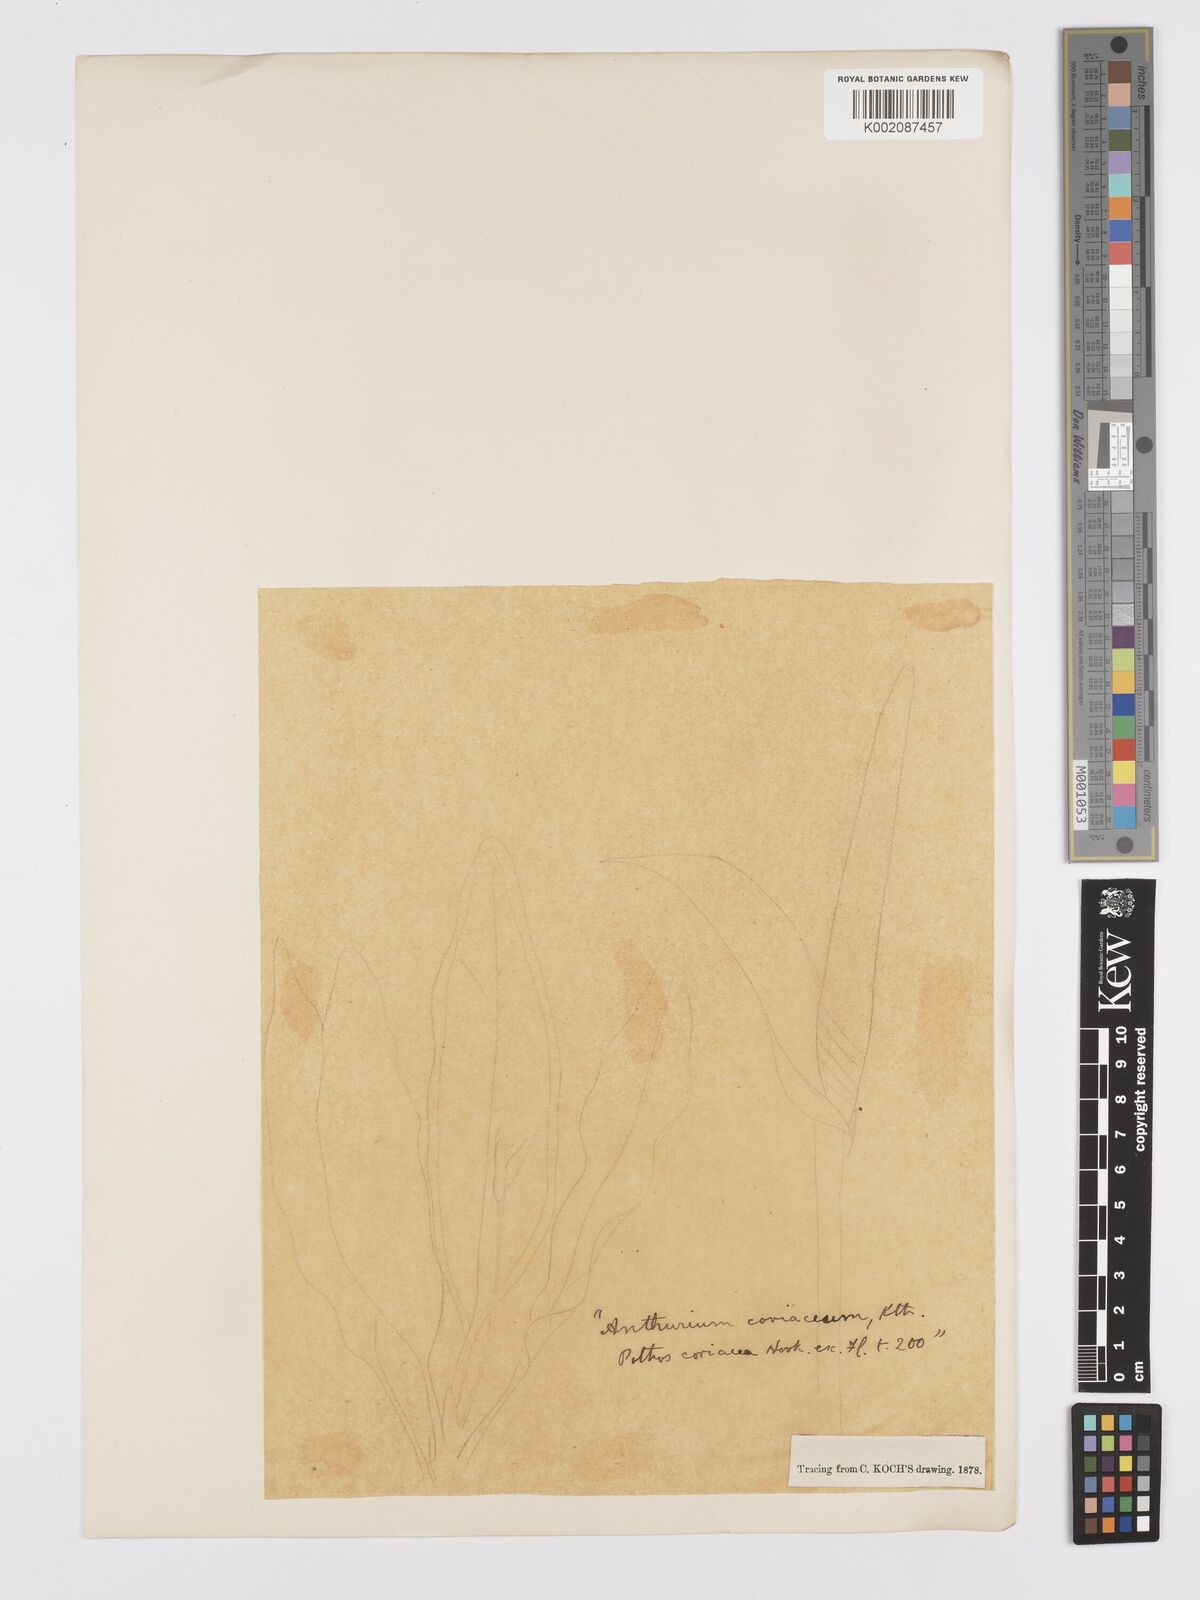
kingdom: Plantae
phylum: Tracheophyta
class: Liliopsida
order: Alismatales
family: Araceae
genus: Anthurium
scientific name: Anthurium
